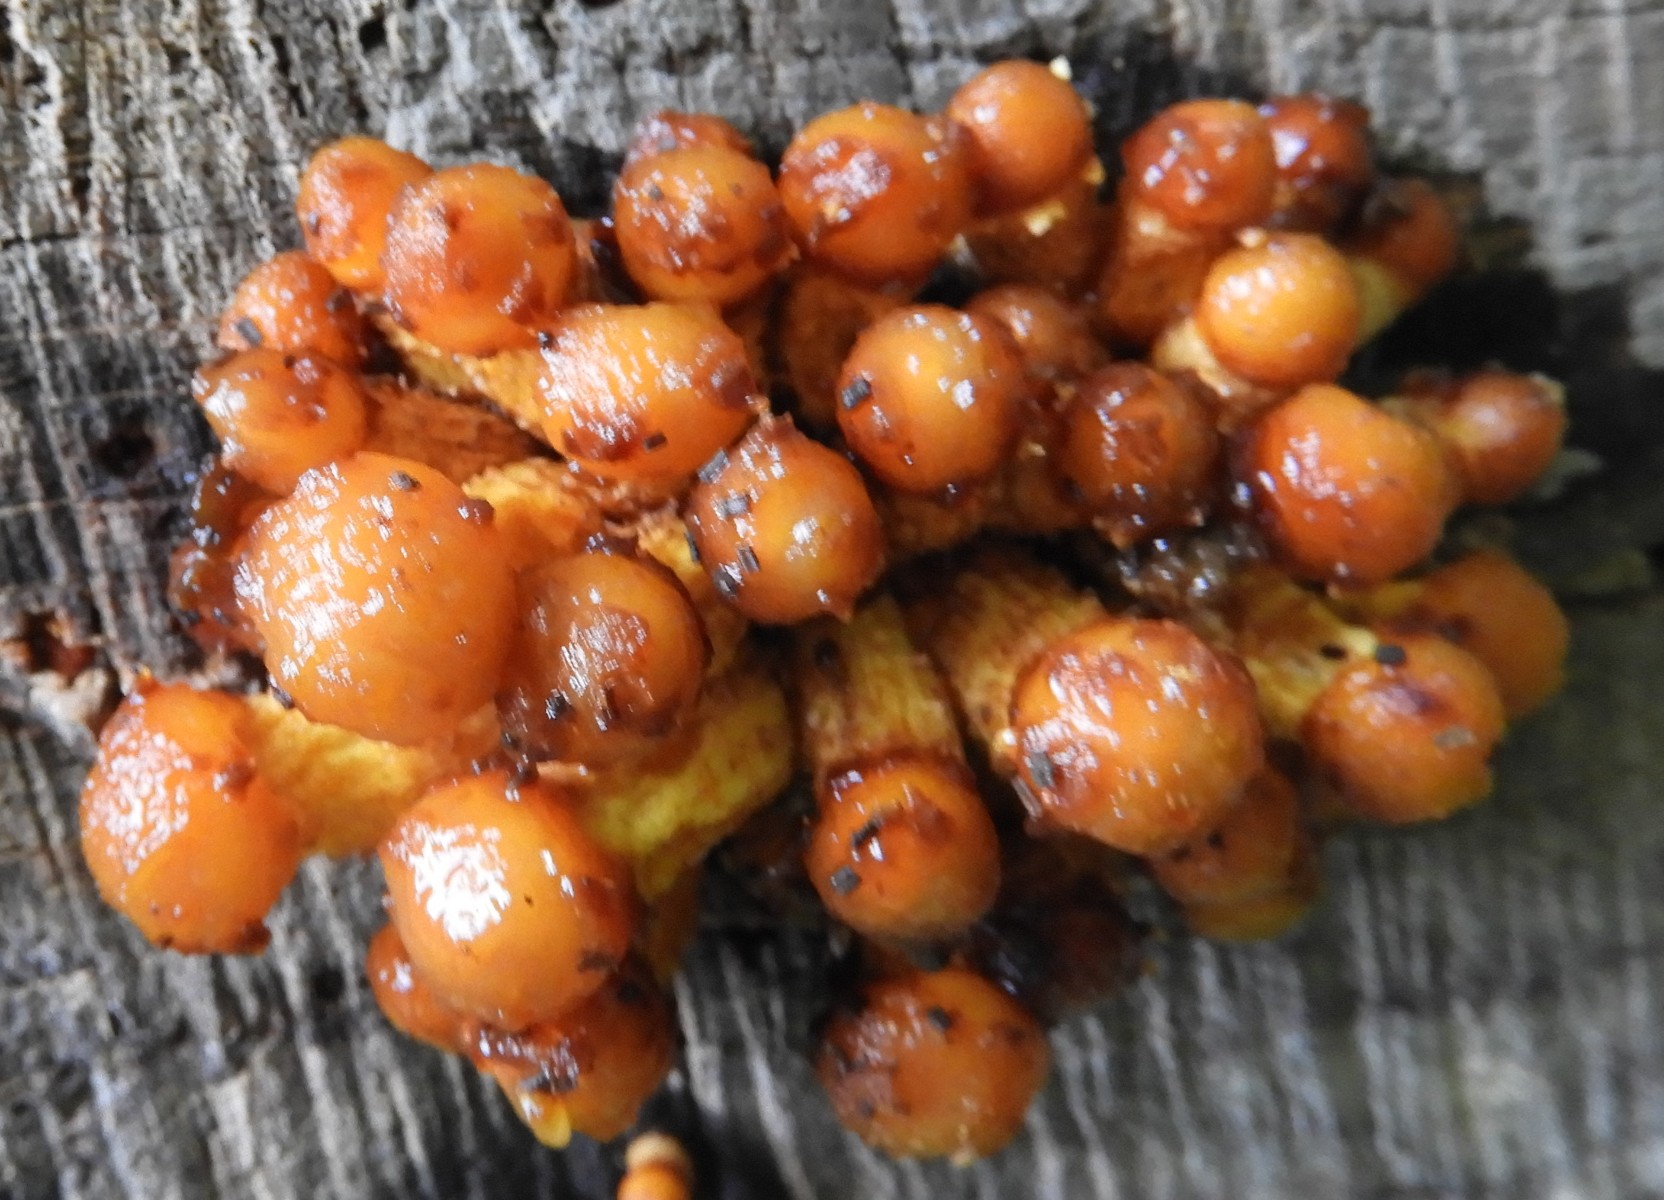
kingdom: Fungi
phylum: Basidiomycota
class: Agaricomycetes
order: Agaricales
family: Strophariaceae
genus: Pholiota
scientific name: Pholiota adiposa
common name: højtsiddende skælhat
